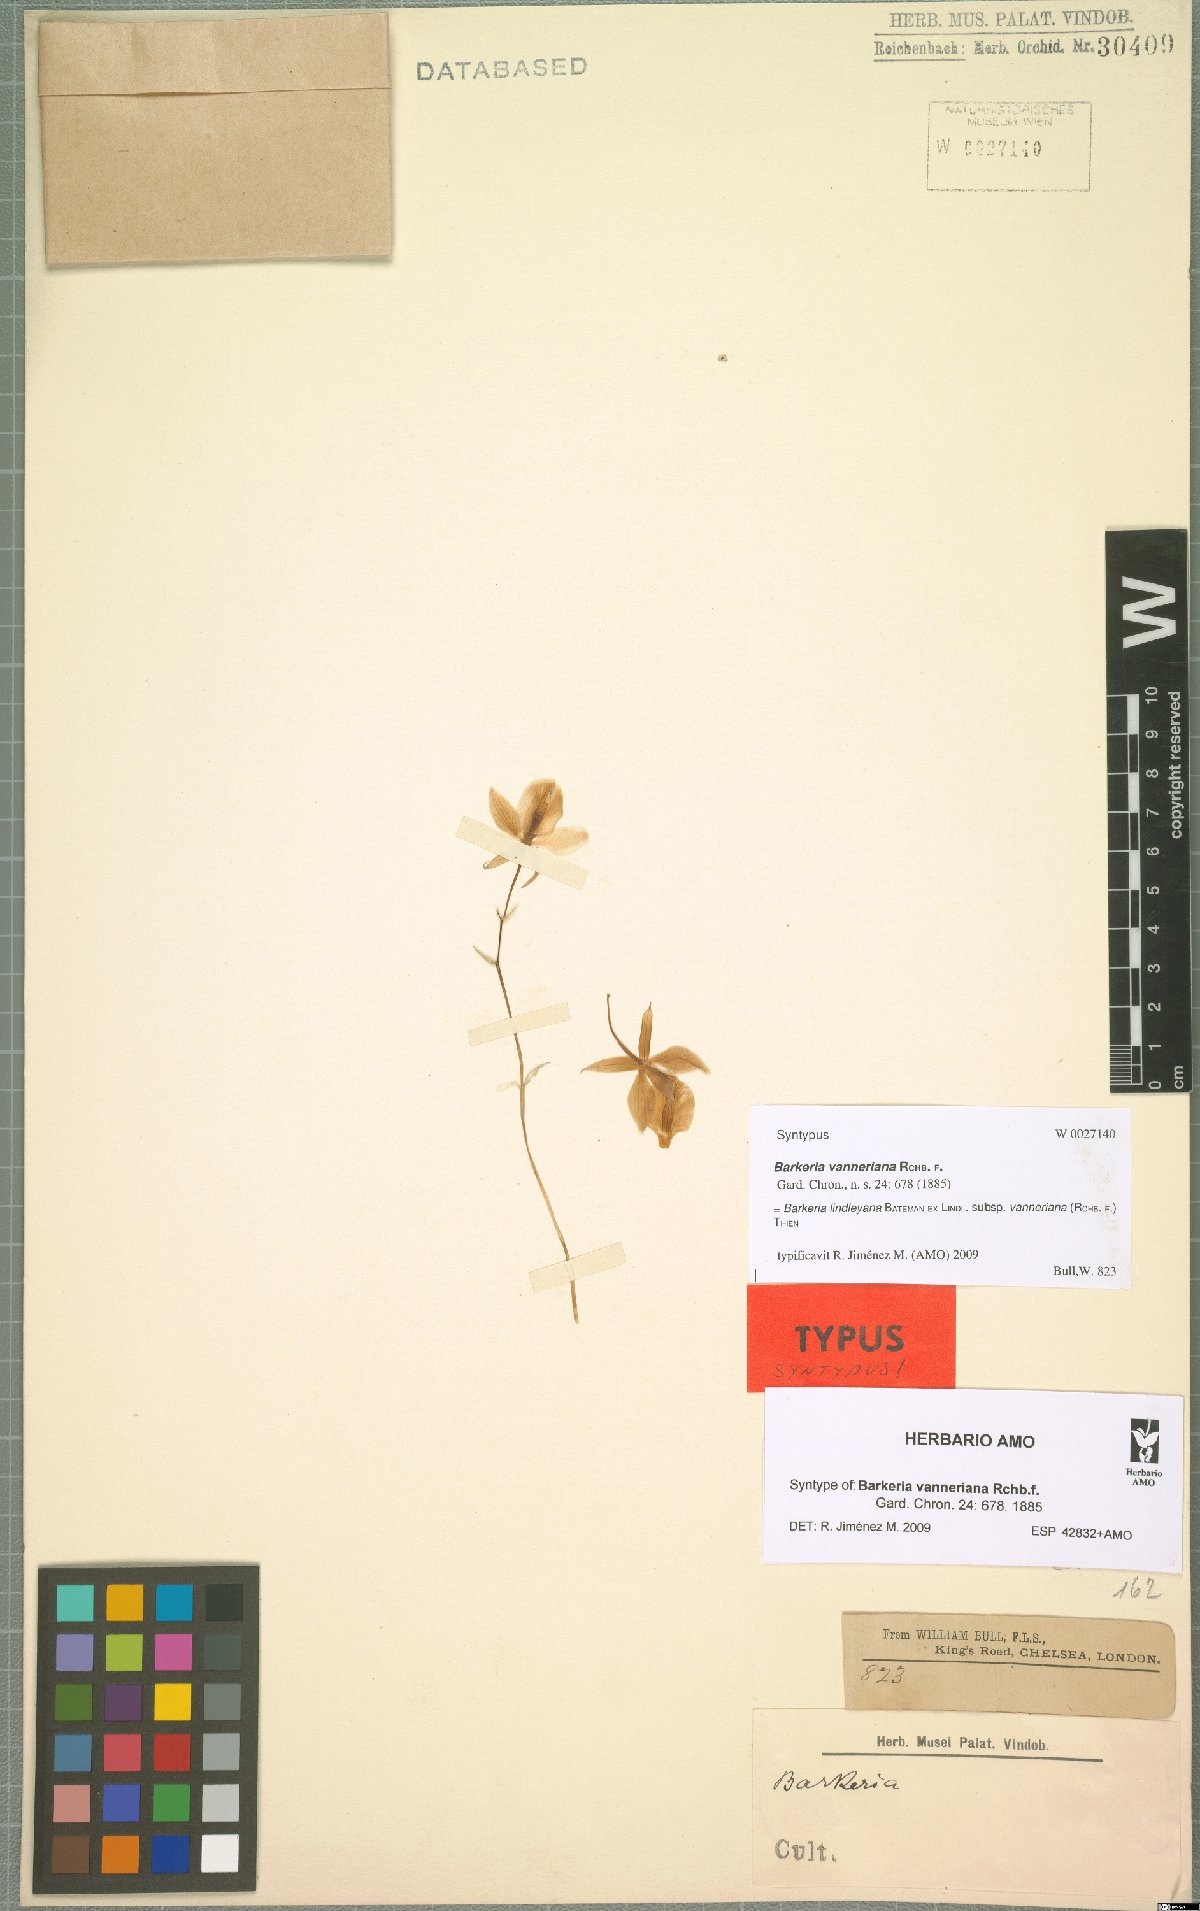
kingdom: Plantae
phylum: Tracheophyta
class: Liliopsida
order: Asparagales
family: Orchidaceae
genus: Barkeria
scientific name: Barkeria lindleyana
